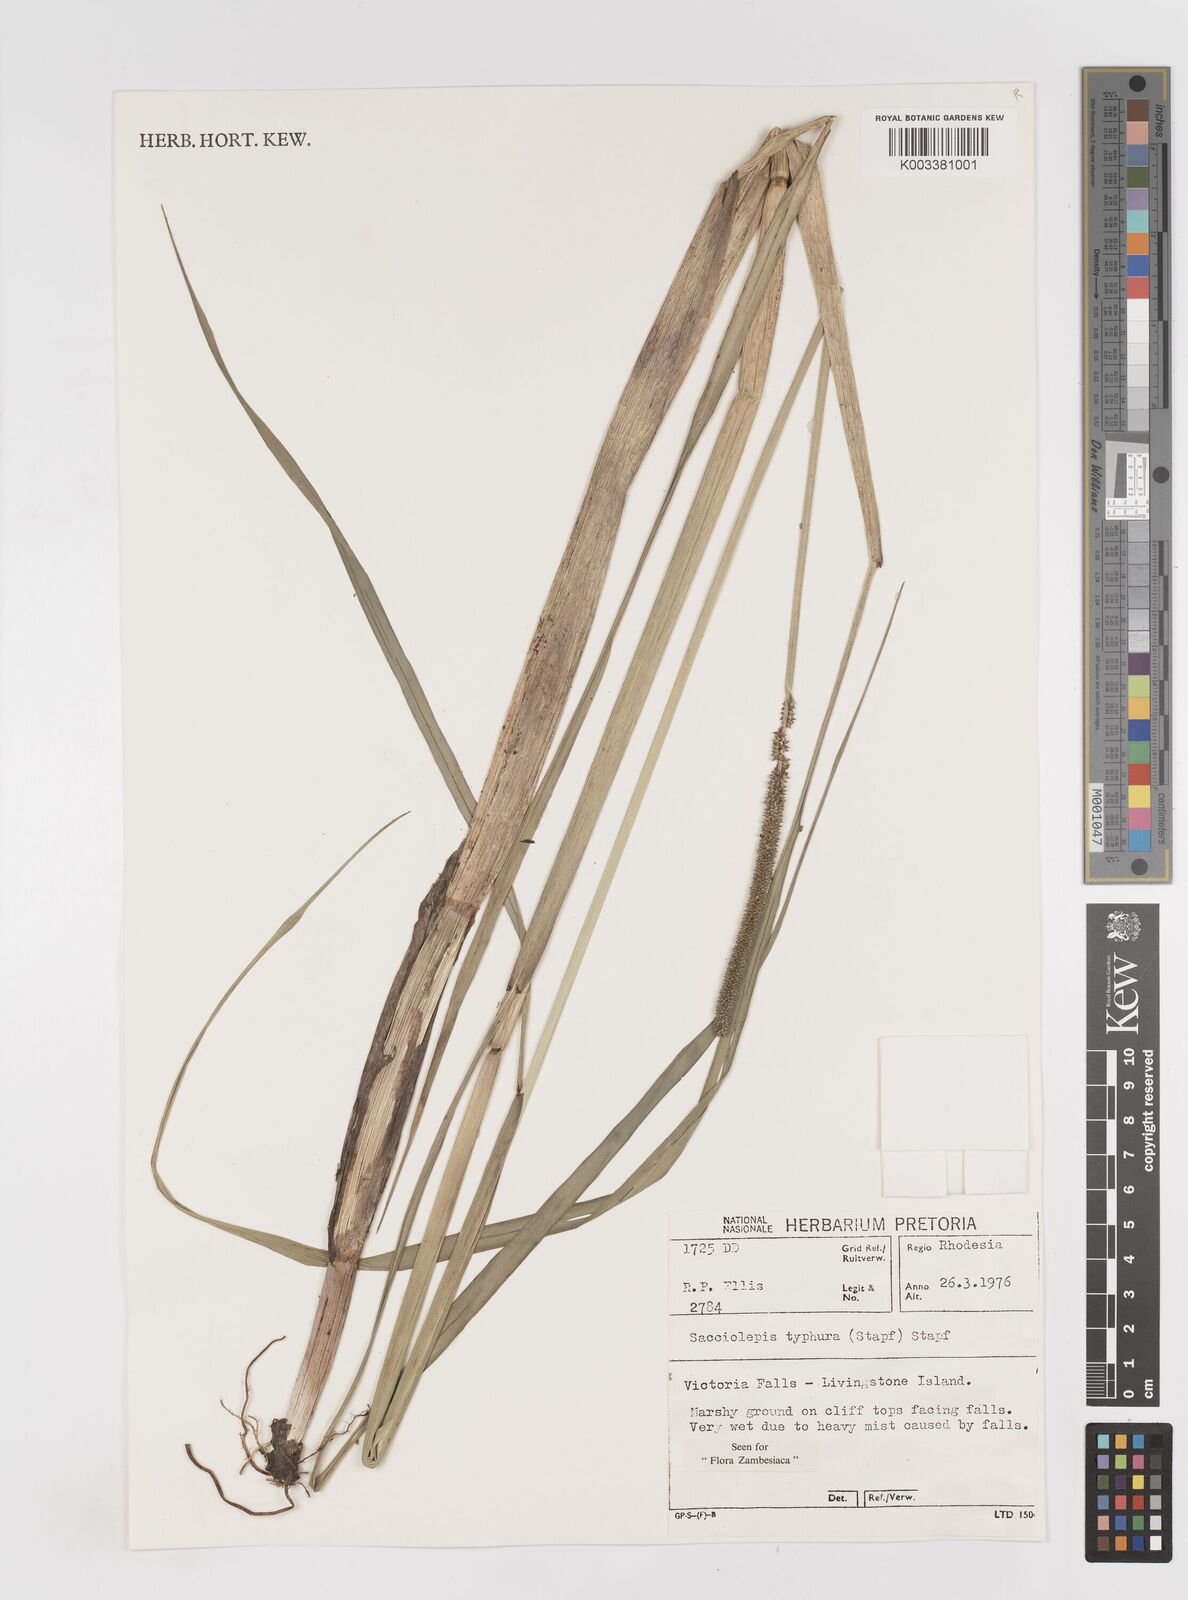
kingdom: Plantae
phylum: Tracheophyta
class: Liliopsida
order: Poales
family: Poaceae
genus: Sacciolepis
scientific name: Sacciolepis typhura
